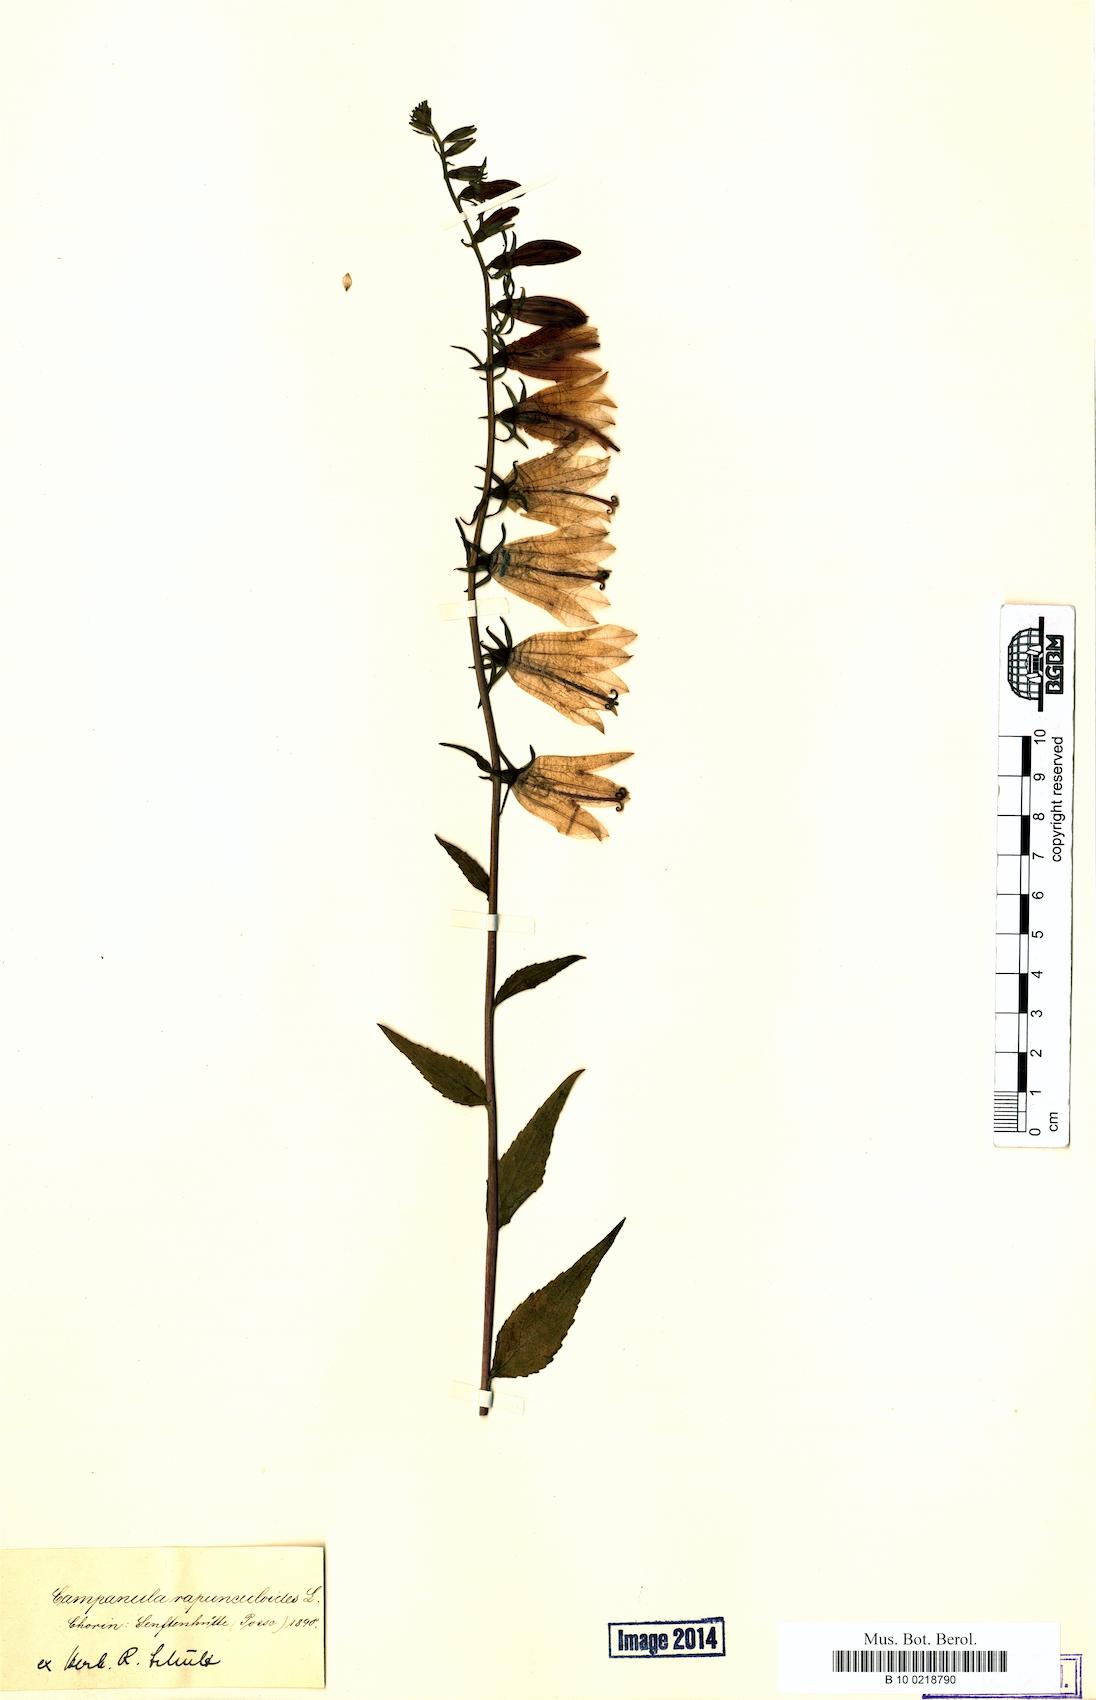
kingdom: Plantae
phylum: Tracheophyta
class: Magnoliopsida
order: Asterales
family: Campanulaceae
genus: Campanula
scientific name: Campanula rapunculoides
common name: Creeping bellflower
